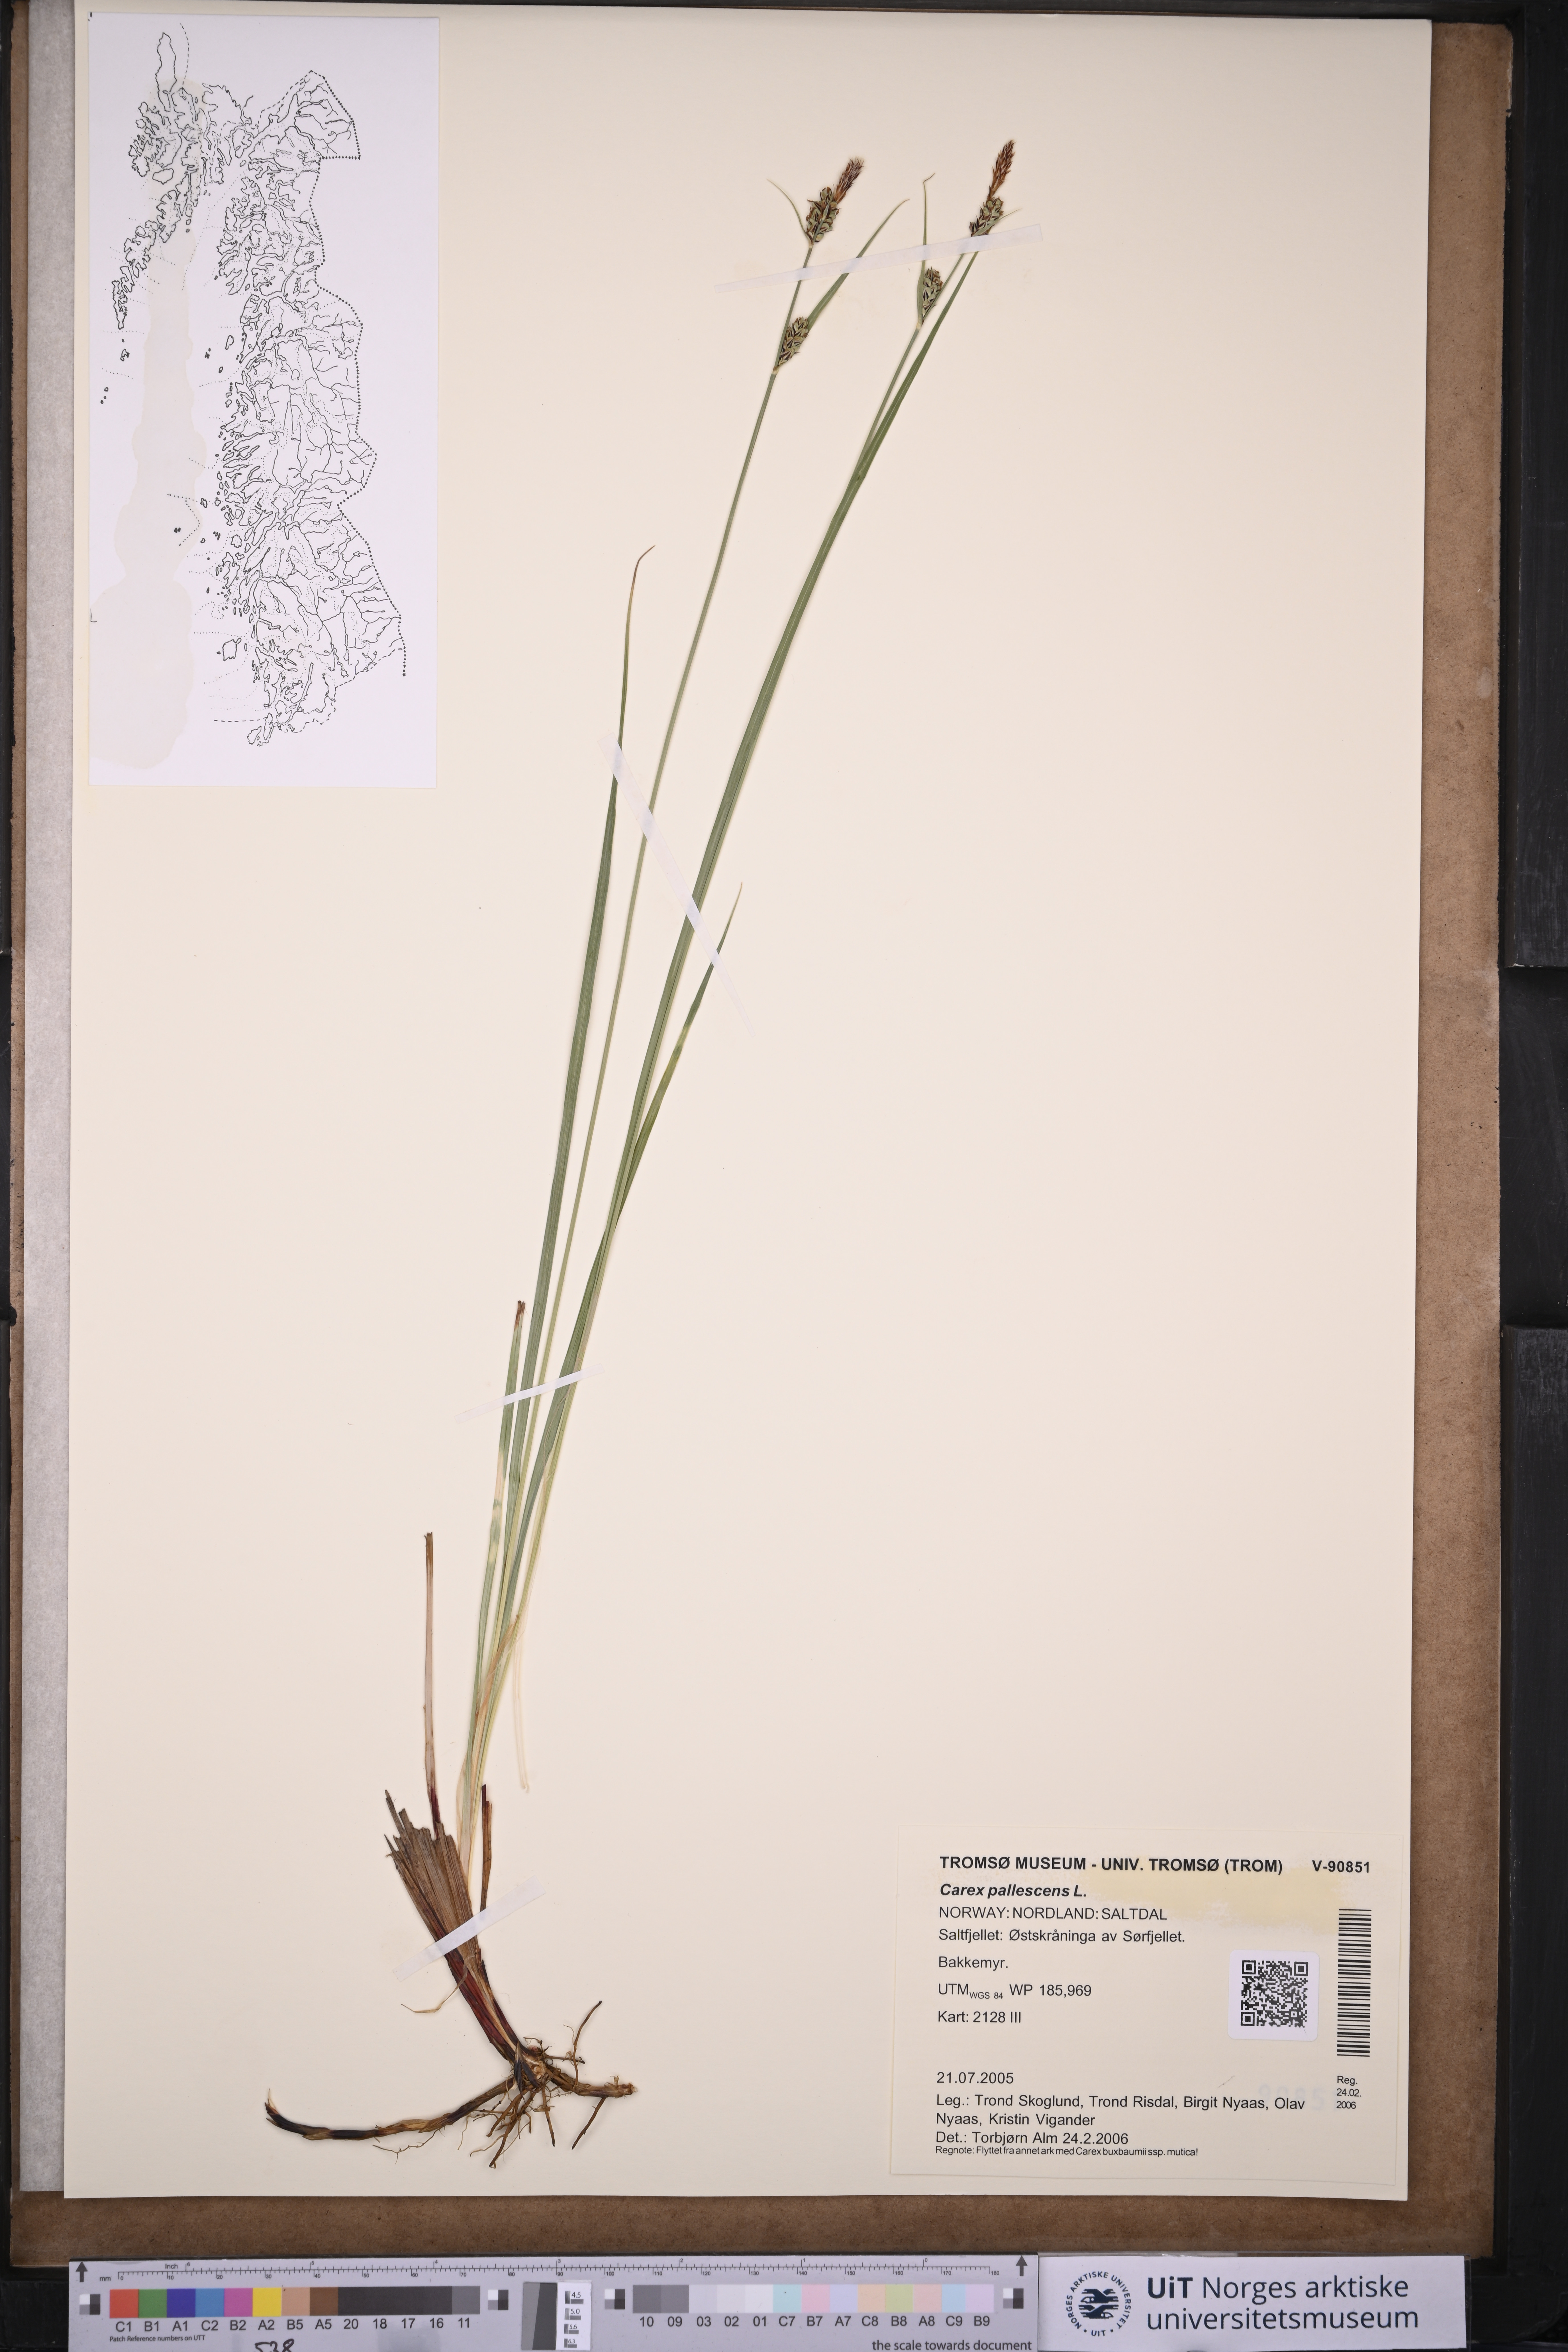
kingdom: Plantae
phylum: Tracheophyta
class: Liliopsida
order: Poales
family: Cyperaceae
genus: Carex
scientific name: Carex pallescens
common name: Pale sedge
